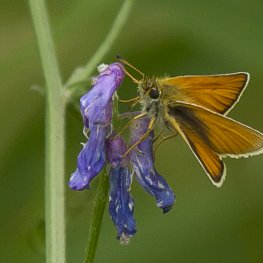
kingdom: Animalia
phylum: Arthropoda
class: Insecta
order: Lepidoptera
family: Hesperiidae
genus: Thymelicus
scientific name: Thymelicus lineola
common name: European Skipper
